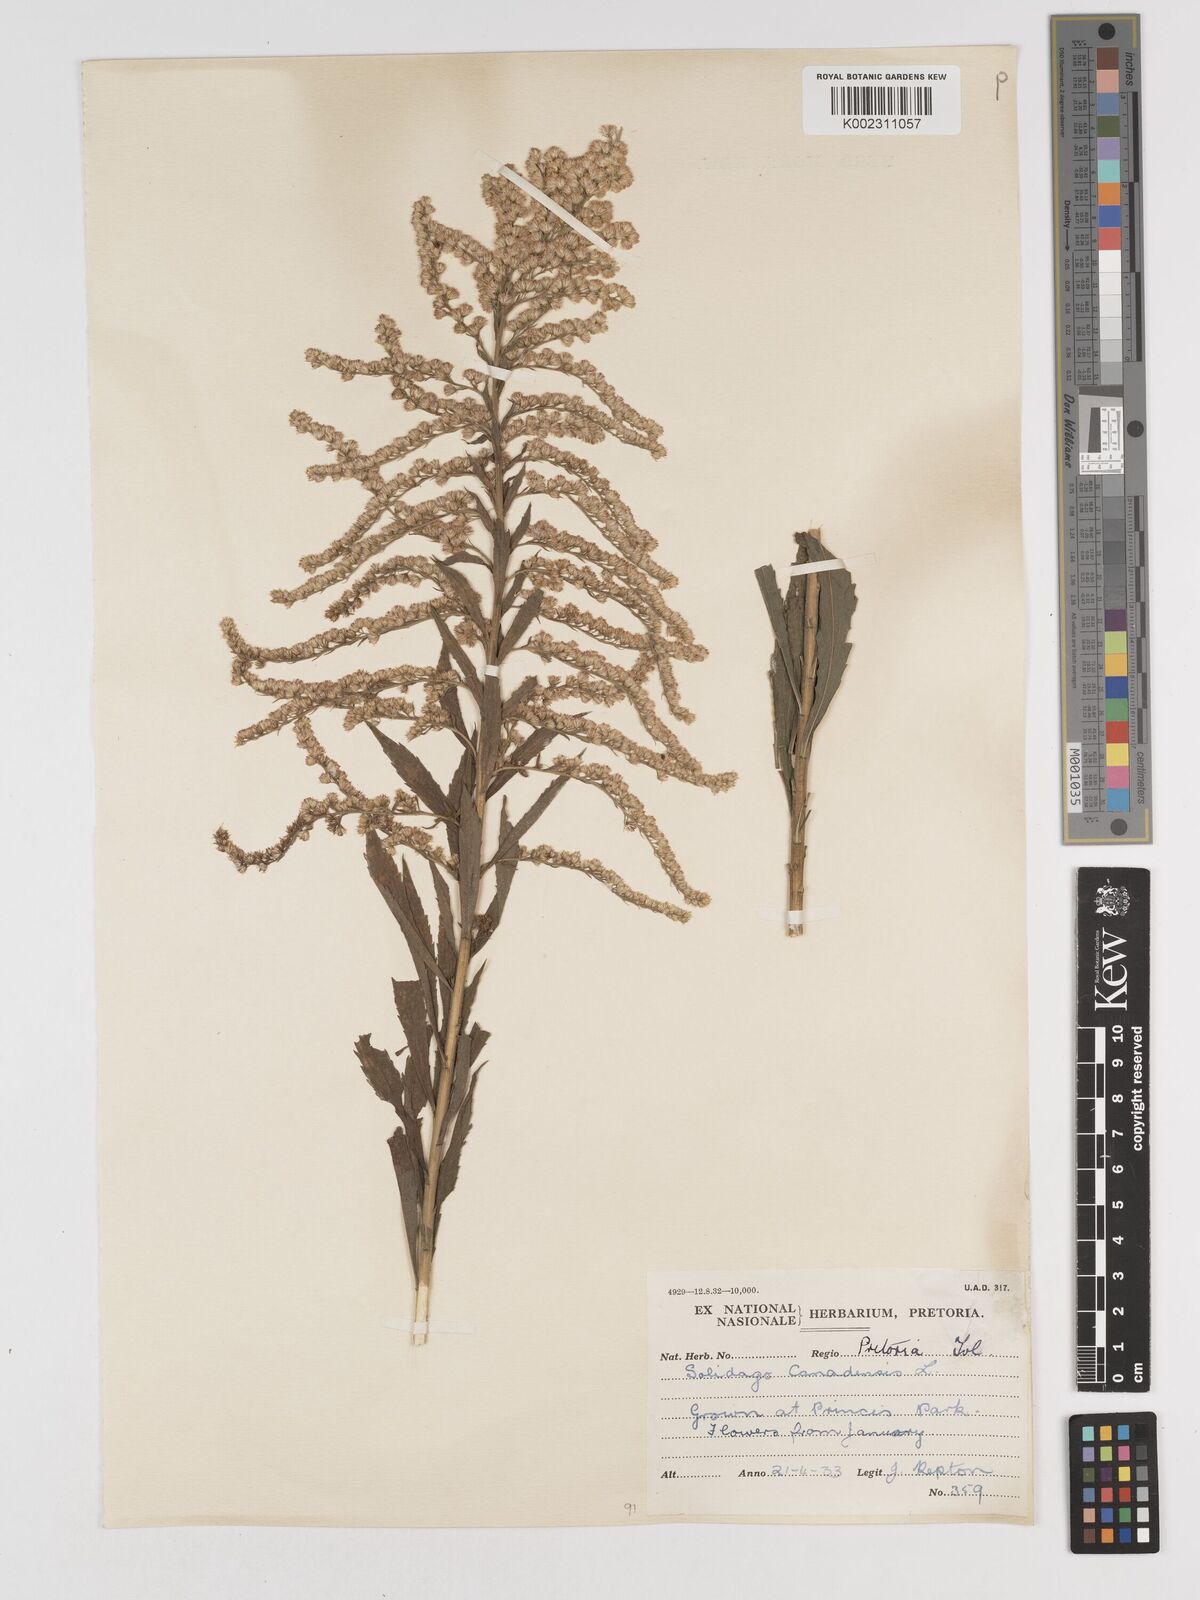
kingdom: Plantae
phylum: Tracheophyta
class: Magnoliopsida
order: Asterales
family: Asteraceae
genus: Solidago
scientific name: Solidago canadensis
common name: Canada goldenrod
